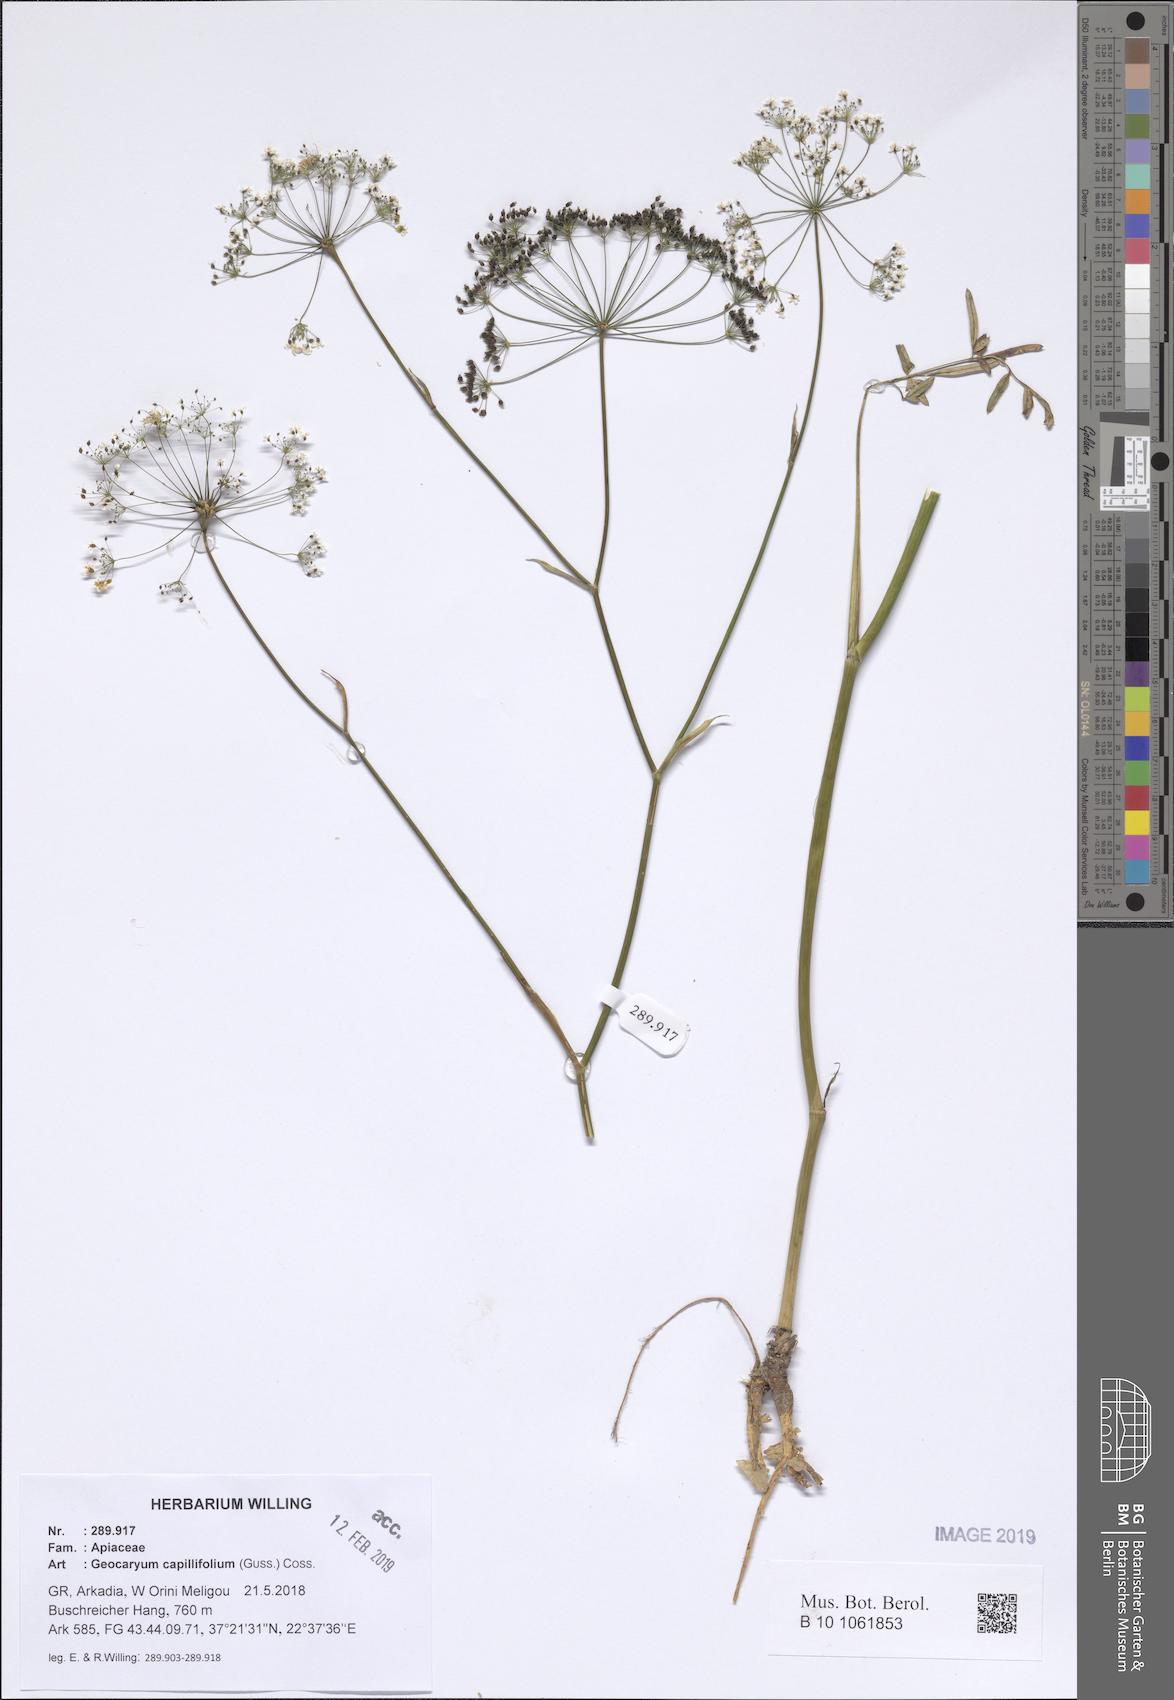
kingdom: Plantae
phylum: Tracheophyta
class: Magnoliopsida
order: Apiales
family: Apiaceae
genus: Geocaryum
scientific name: Geocaryum capillifolium
